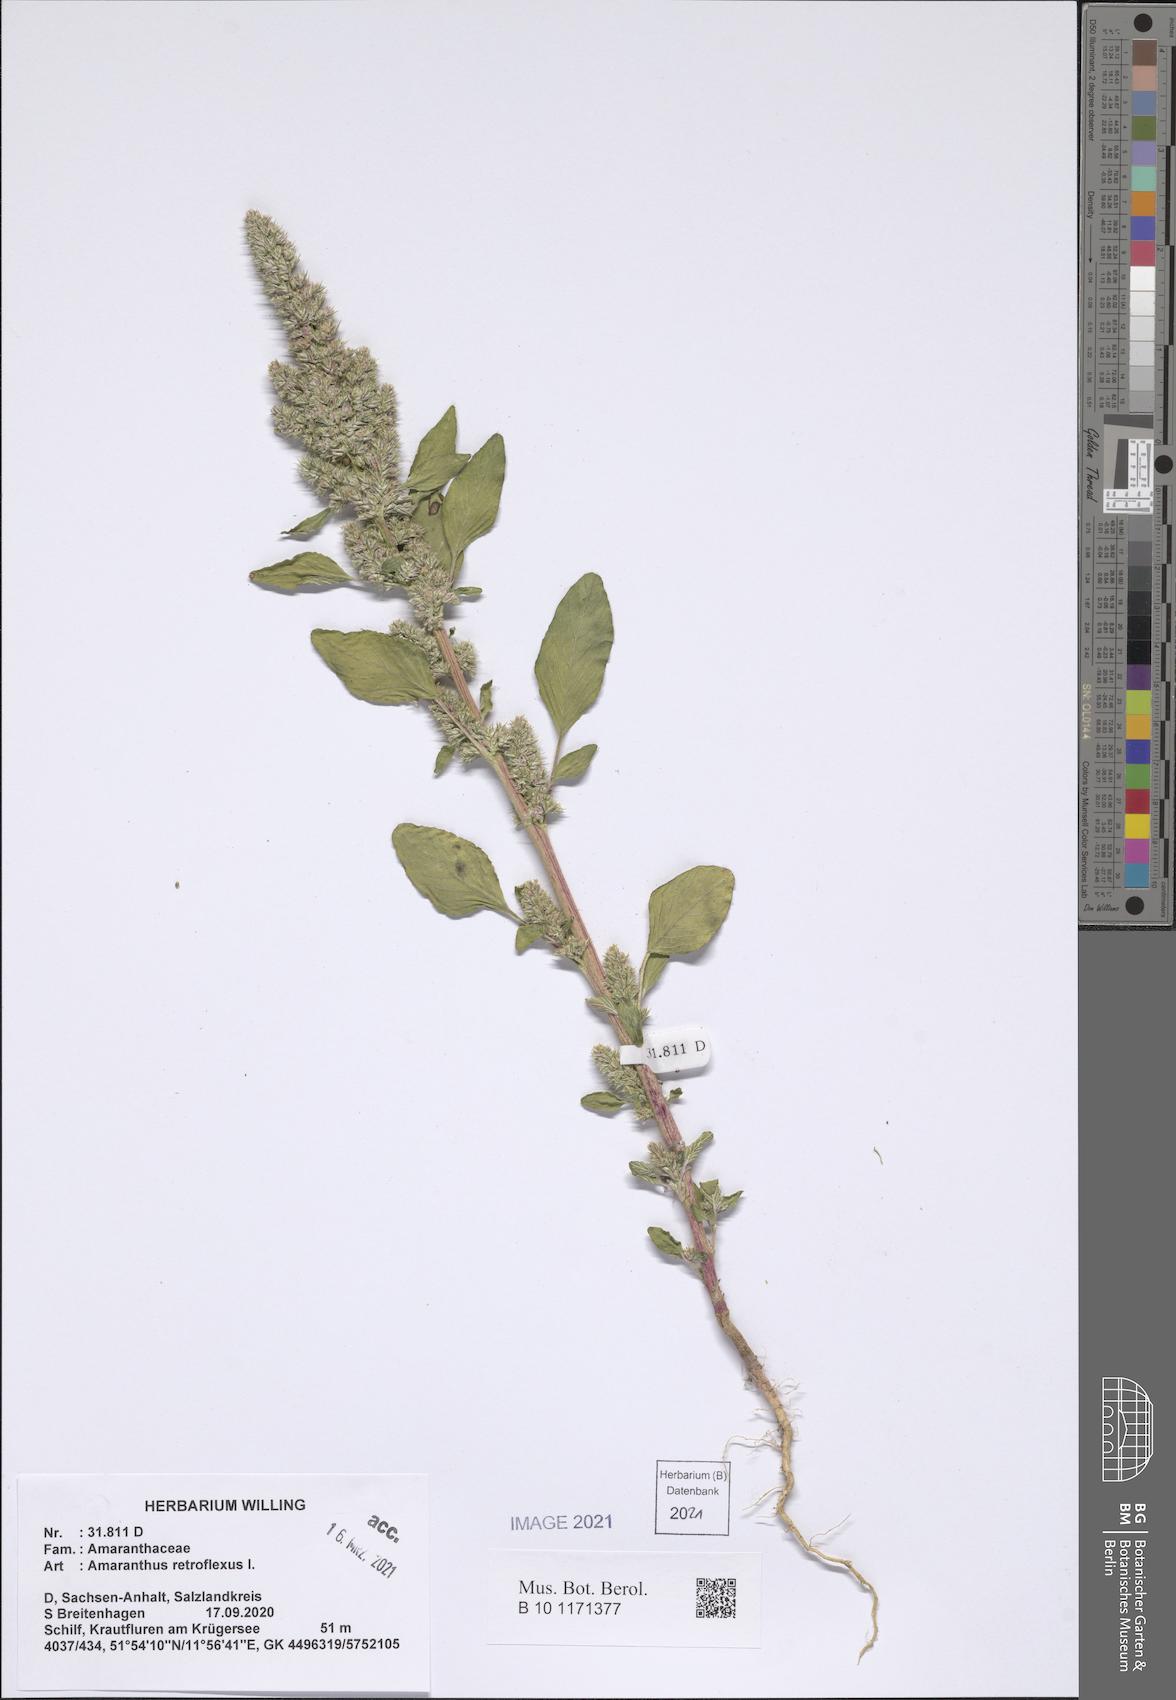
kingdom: Plantae
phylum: Tracheophyta
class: Magnoliopsida
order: Caryophyllales
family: Amaranthaceae
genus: Amaranthus
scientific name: Amaranthus retroflexus
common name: Redroot amaranth
